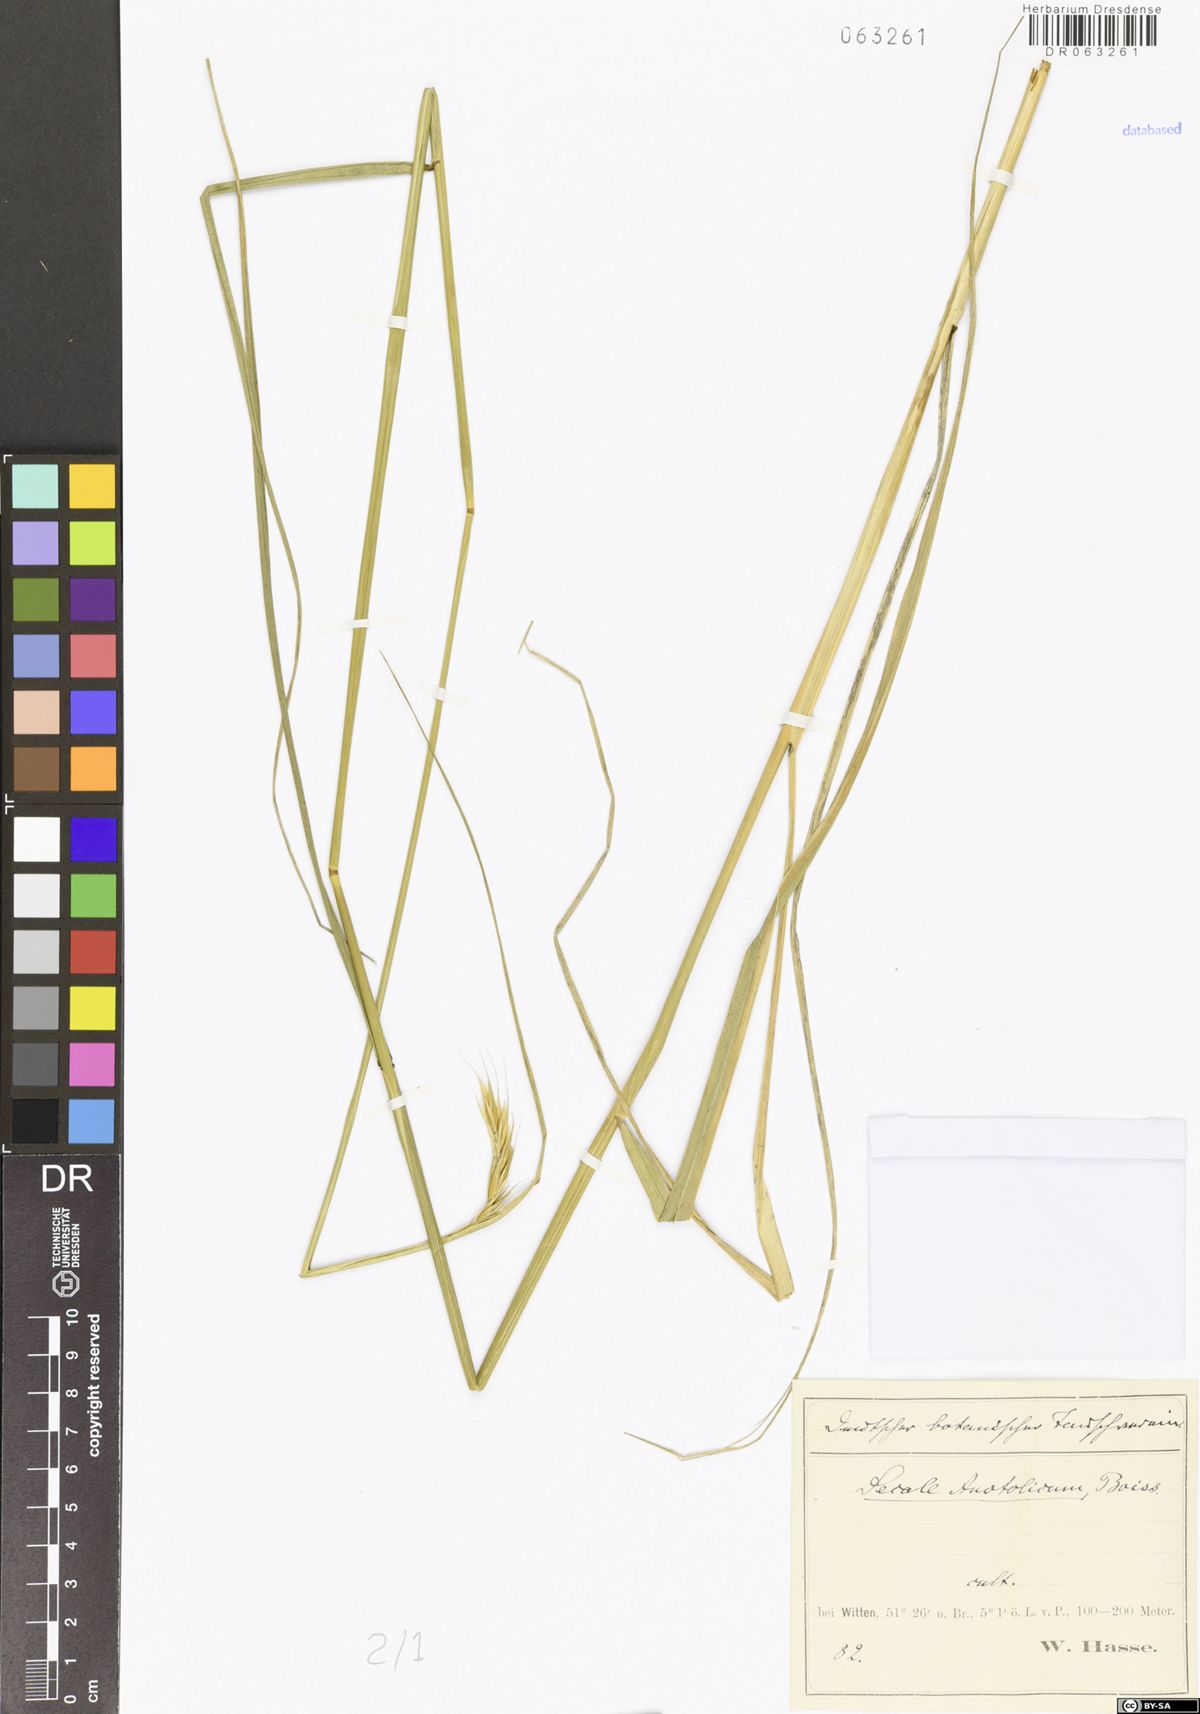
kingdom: Plantae
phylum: Tracheophyta
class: Liliopsida
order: Poales
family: Poaceae
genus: Secale
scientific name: Secale anatolicum
